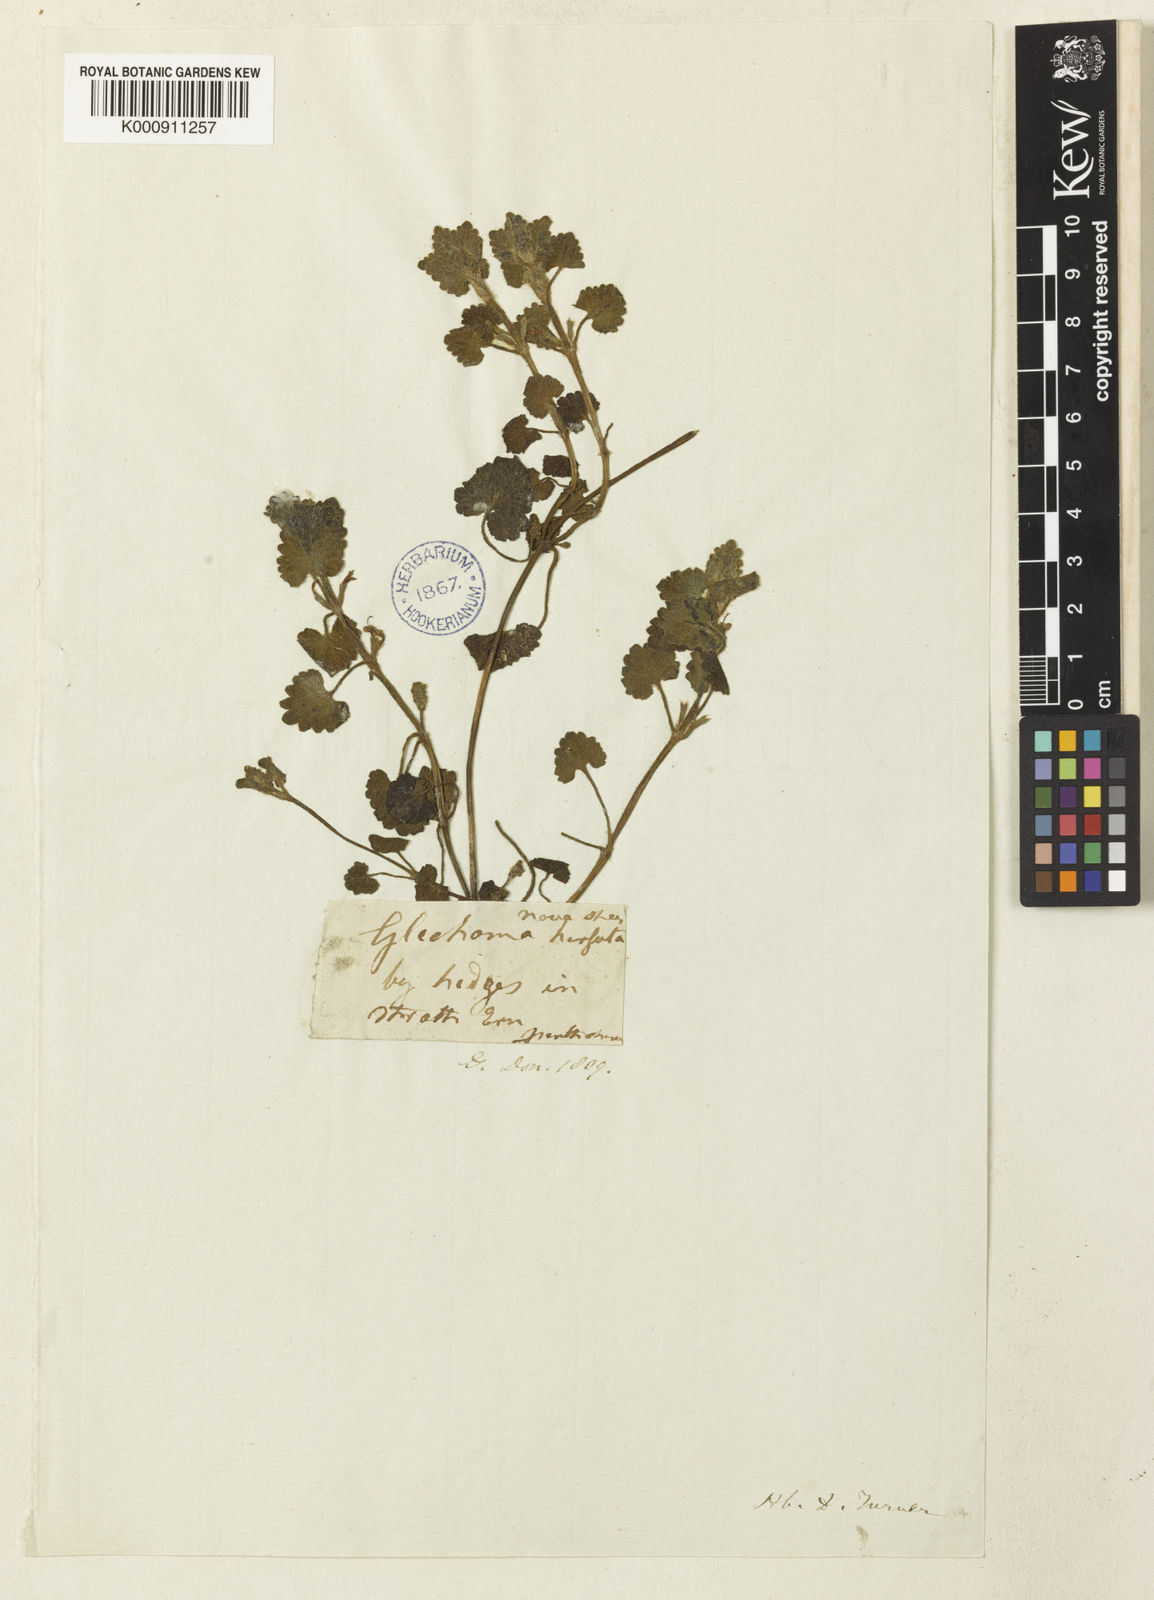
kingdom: Plantae
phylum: Tracheophyta
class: Magnoliopsida
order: Lamiales
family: Lamiaceae
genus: Glechoma
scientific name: Glechoma hederacea
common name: Ground ivy
